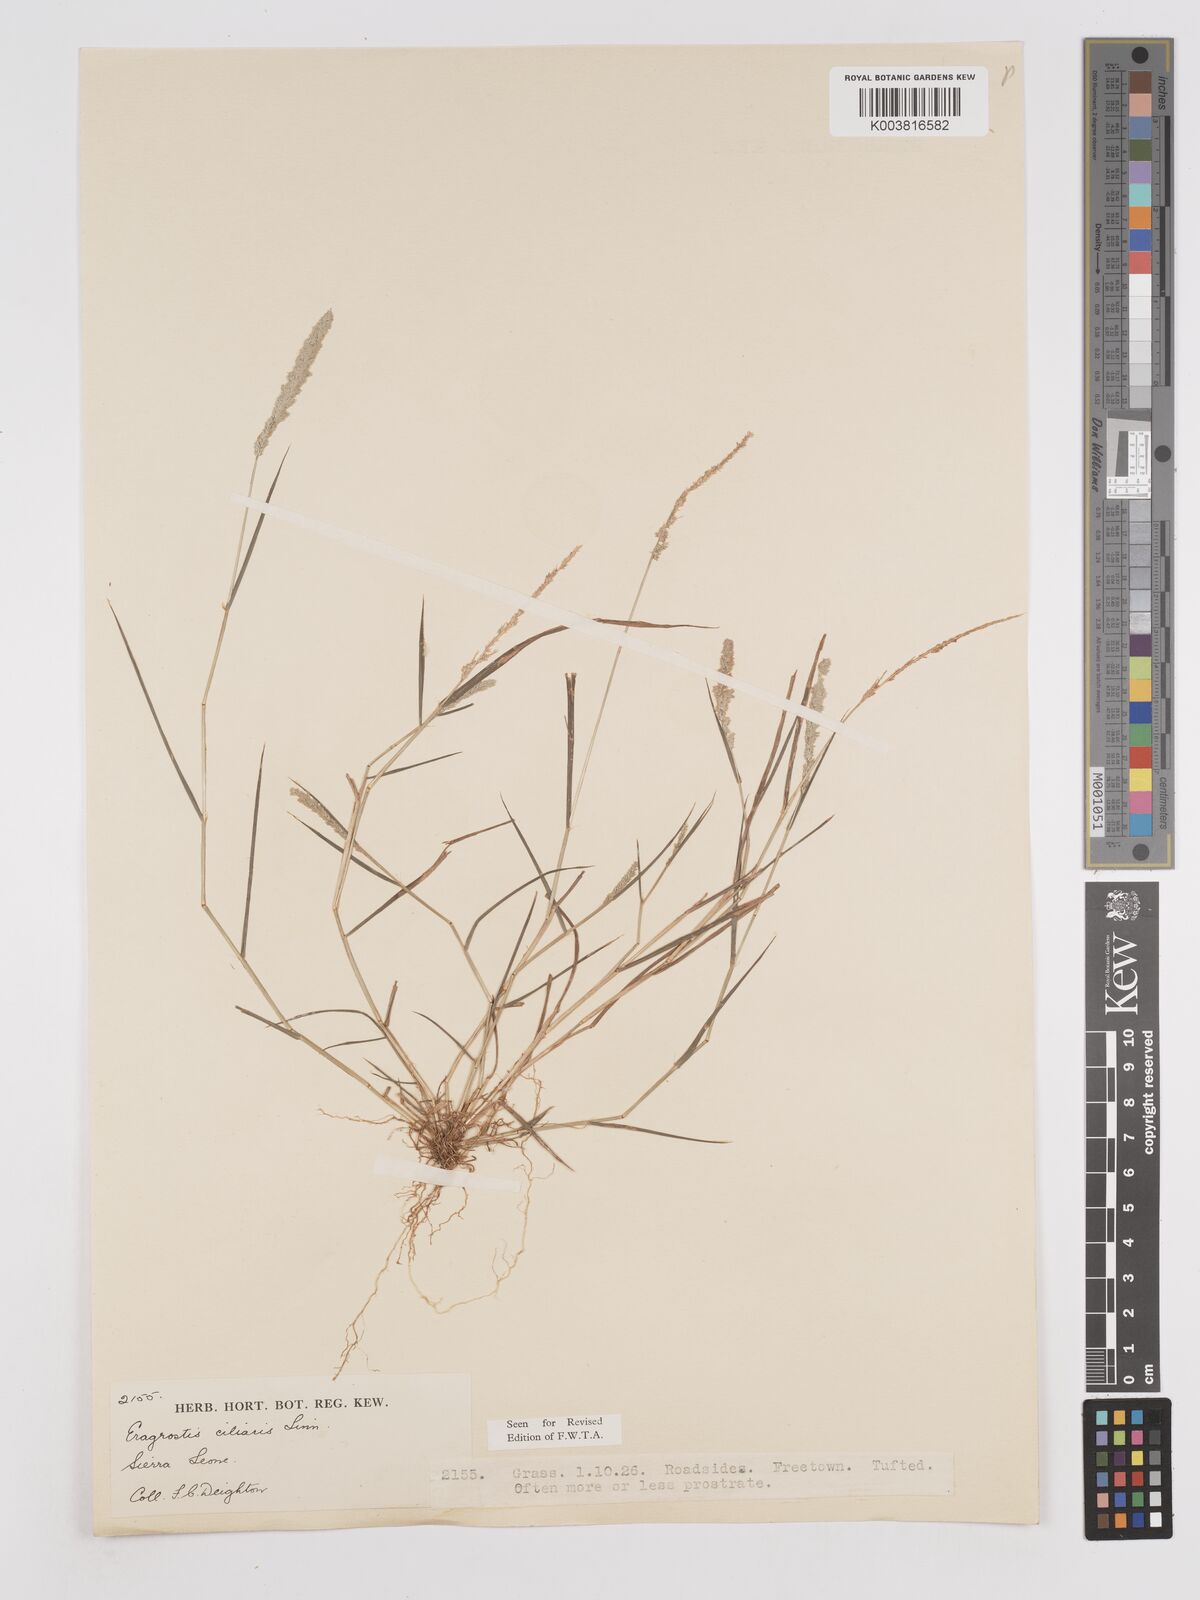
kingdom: Plantae
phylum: Tracheophyta
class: Liliopsida
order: Poales
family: Poaceae
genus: Eragrostis
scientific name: Eragrostis ciliaris
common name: Gophertail lovegrass
